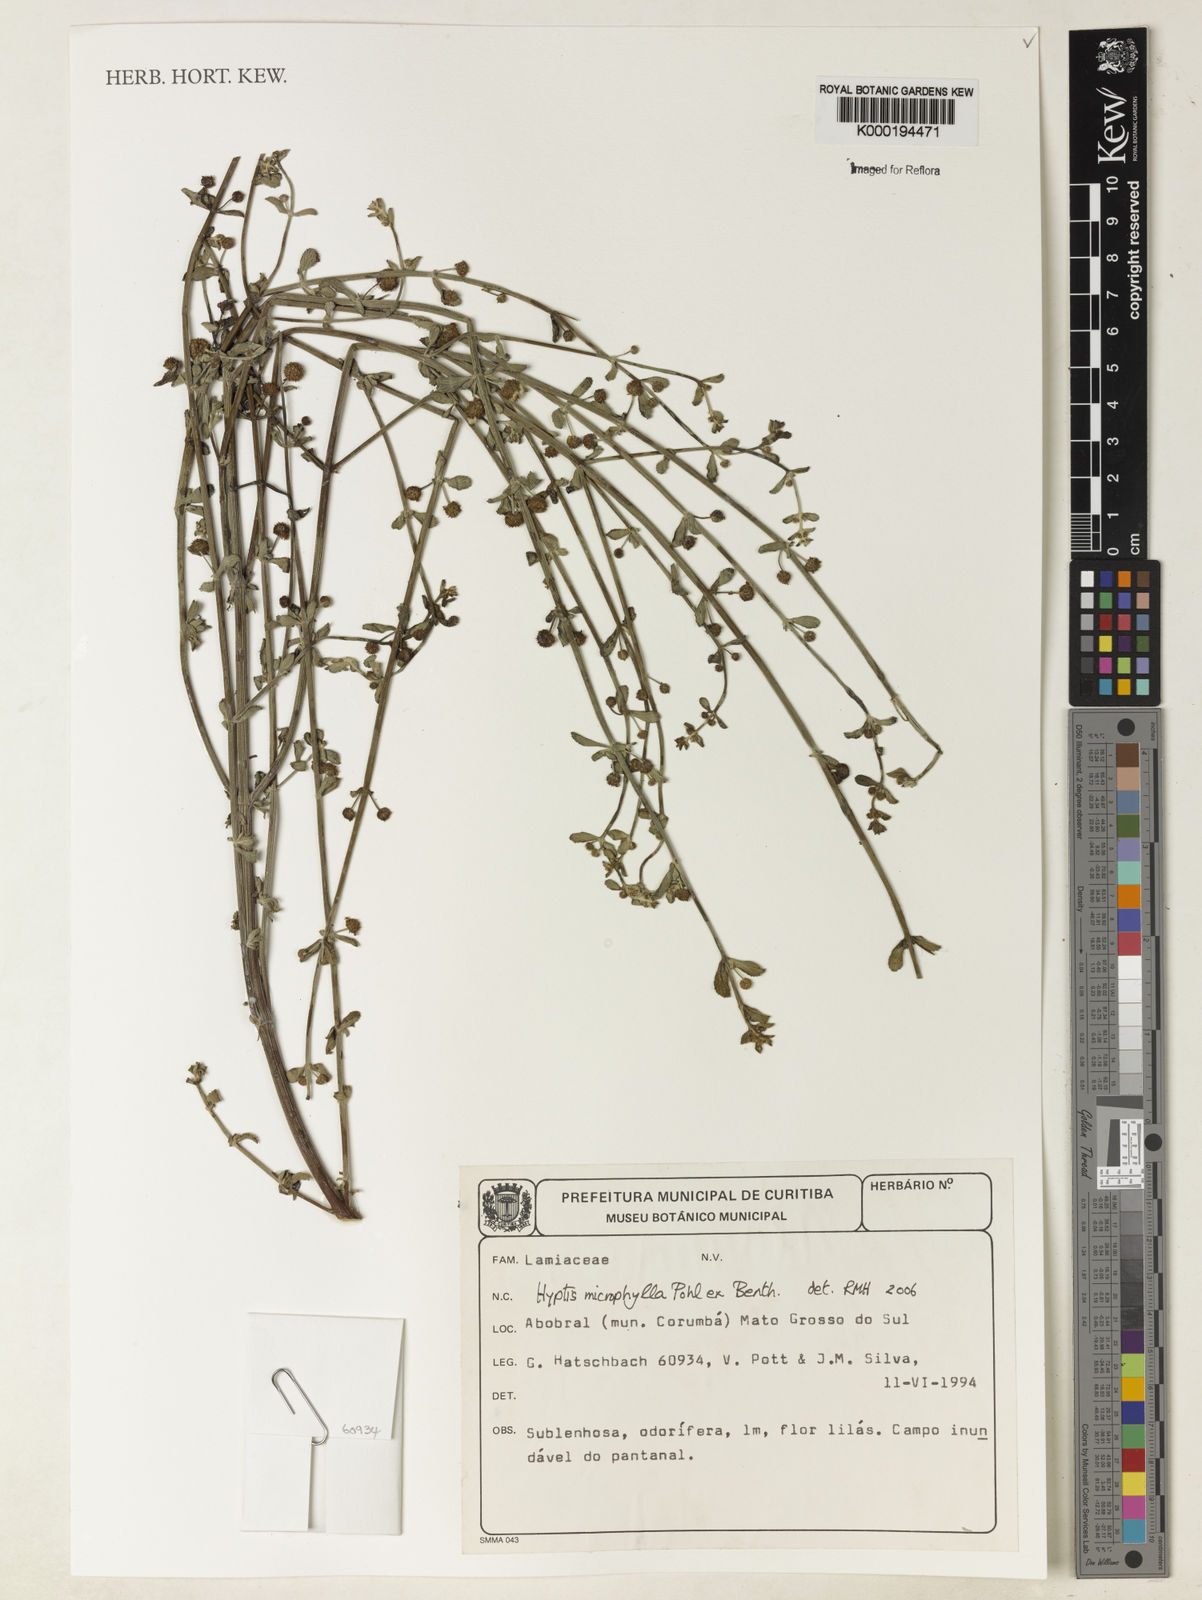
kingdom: Plantae
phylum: Tracheophyta
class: Magnoliopsida
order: Lamiales
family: Lamiaceae
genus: Hyptis
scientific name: Hyptis microphylla
